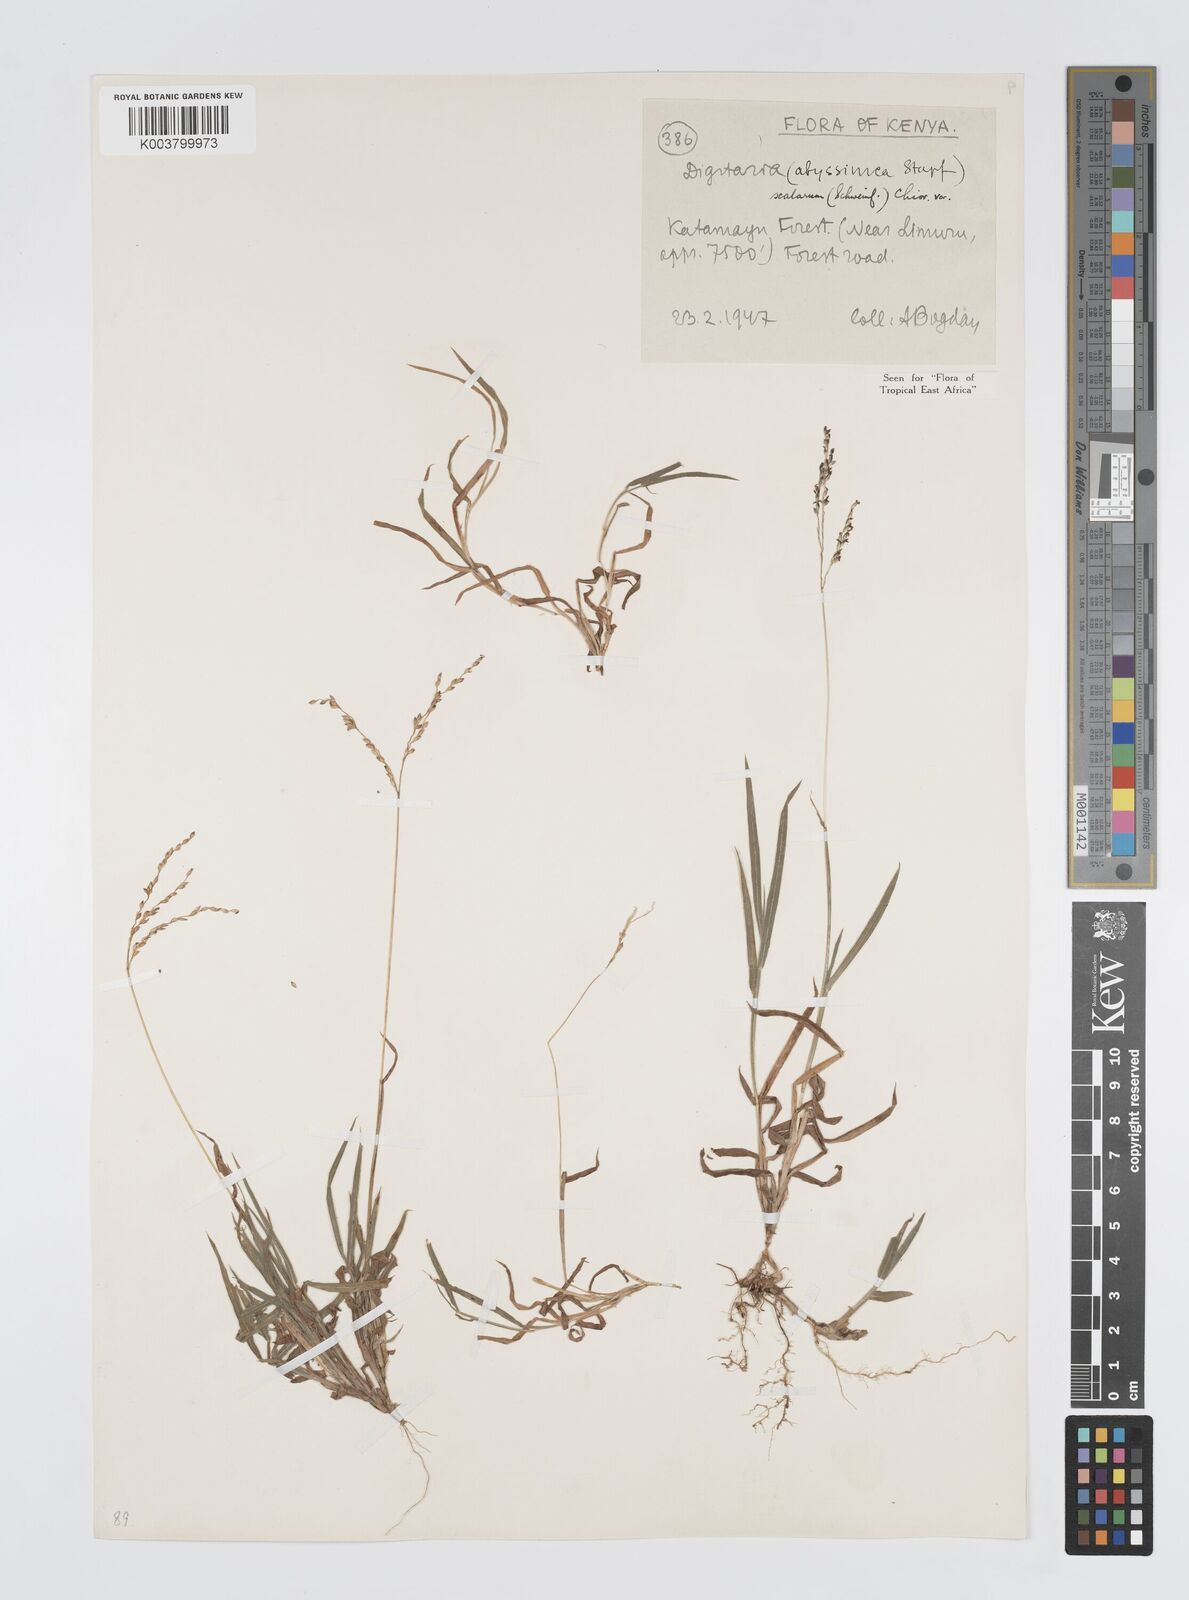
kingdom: Plantae
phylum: Tracheophyta
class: Liliopsida
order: Poales
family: Poaceae
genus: Digitaria
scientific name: Digitaria abyssinica
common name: African couchgrass
